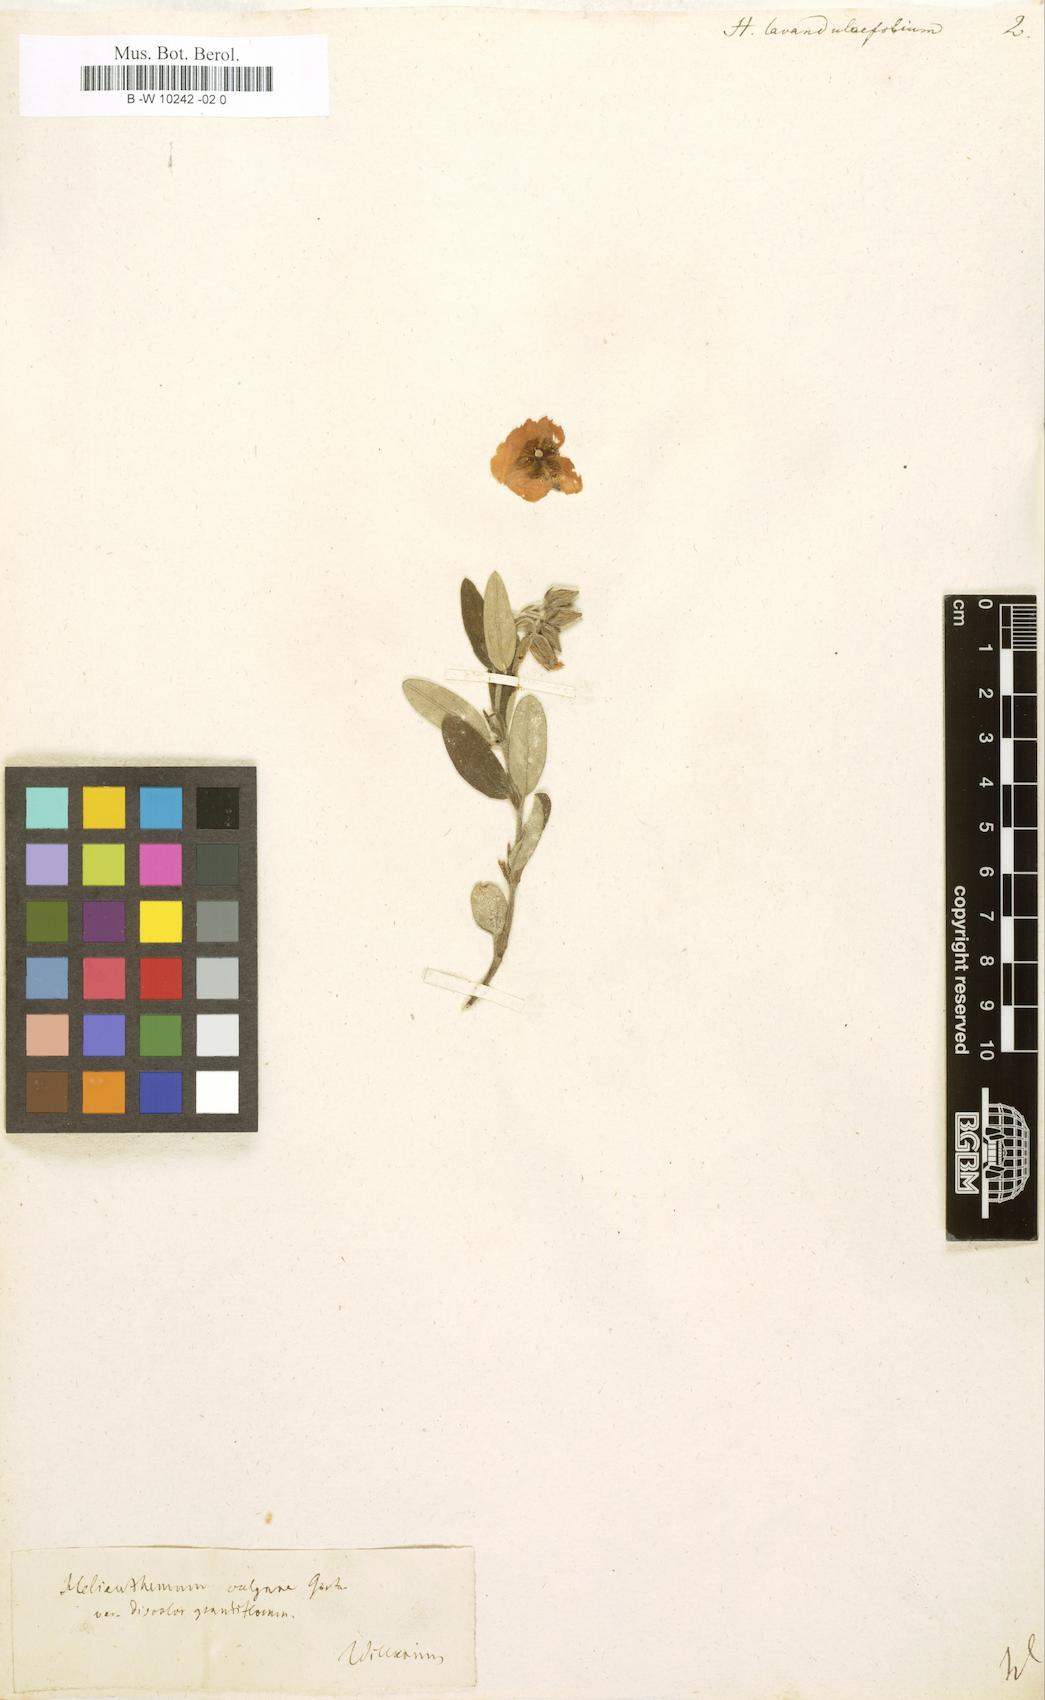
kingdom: Plantae
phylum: Tracheophyta
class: Magnoliopsida
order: Malvales
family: Cistaceae
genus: Helianthemum
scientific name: Helianthemum
